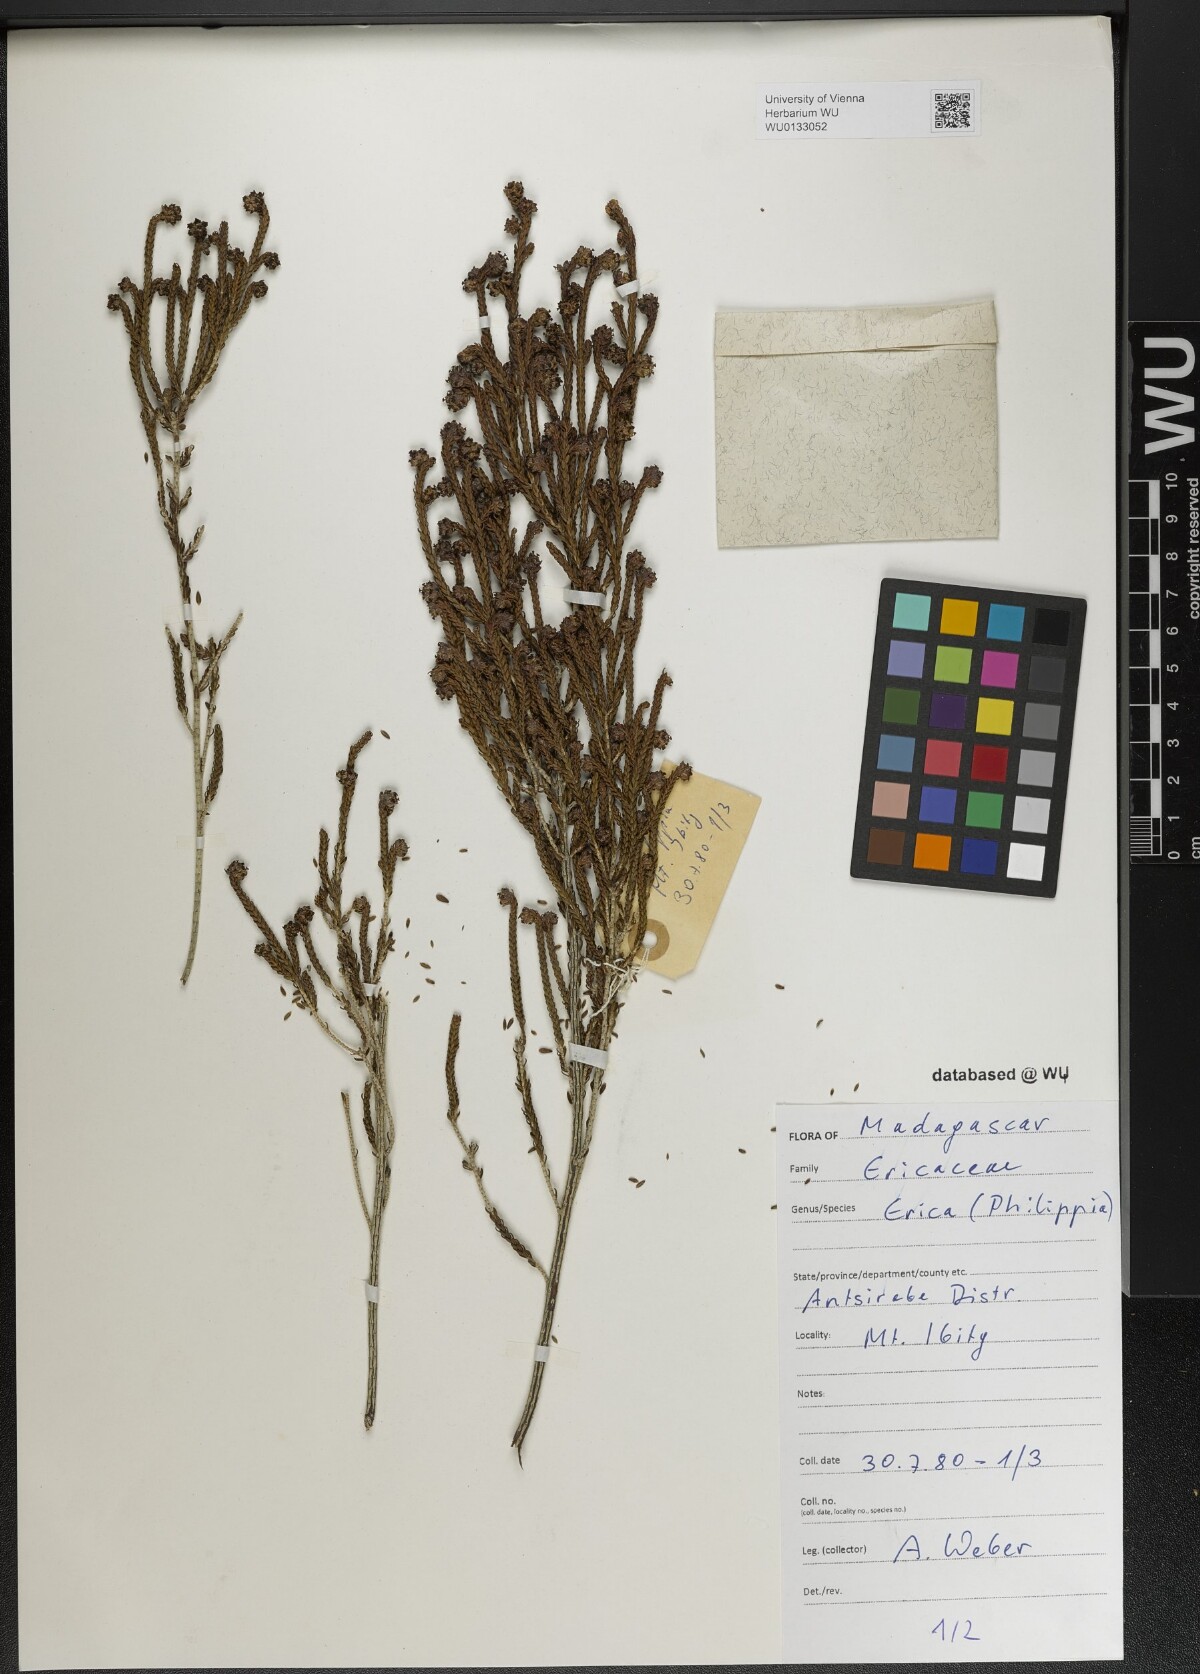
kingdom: Plantae
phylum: Tracheophyta
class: Magnoliopsida
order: Ericales
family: Ericaceae
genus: Erica
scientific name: Erica
